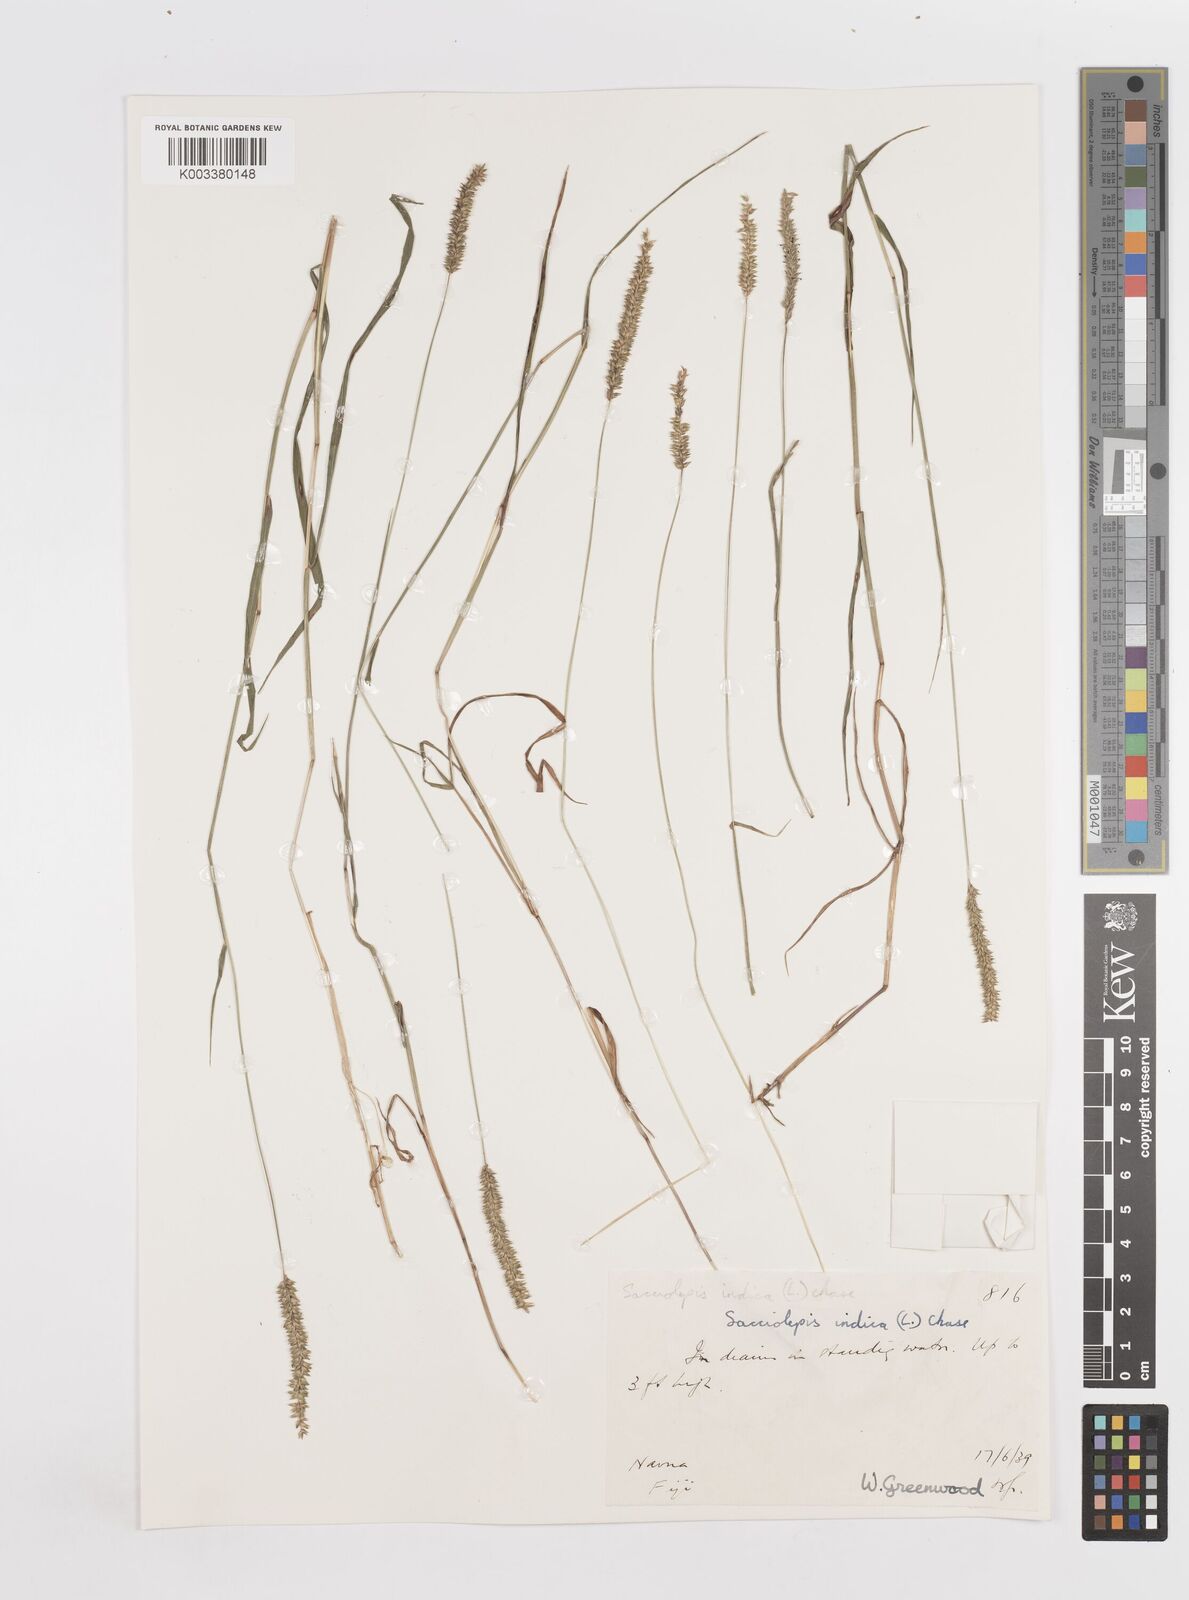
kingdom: Plantae
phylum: Tracheophyta
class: Liliopsida
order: Poales
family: Poaceae
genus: Sacciolepis
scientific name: Sacciolepis indica
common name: Glenwoodgrass
